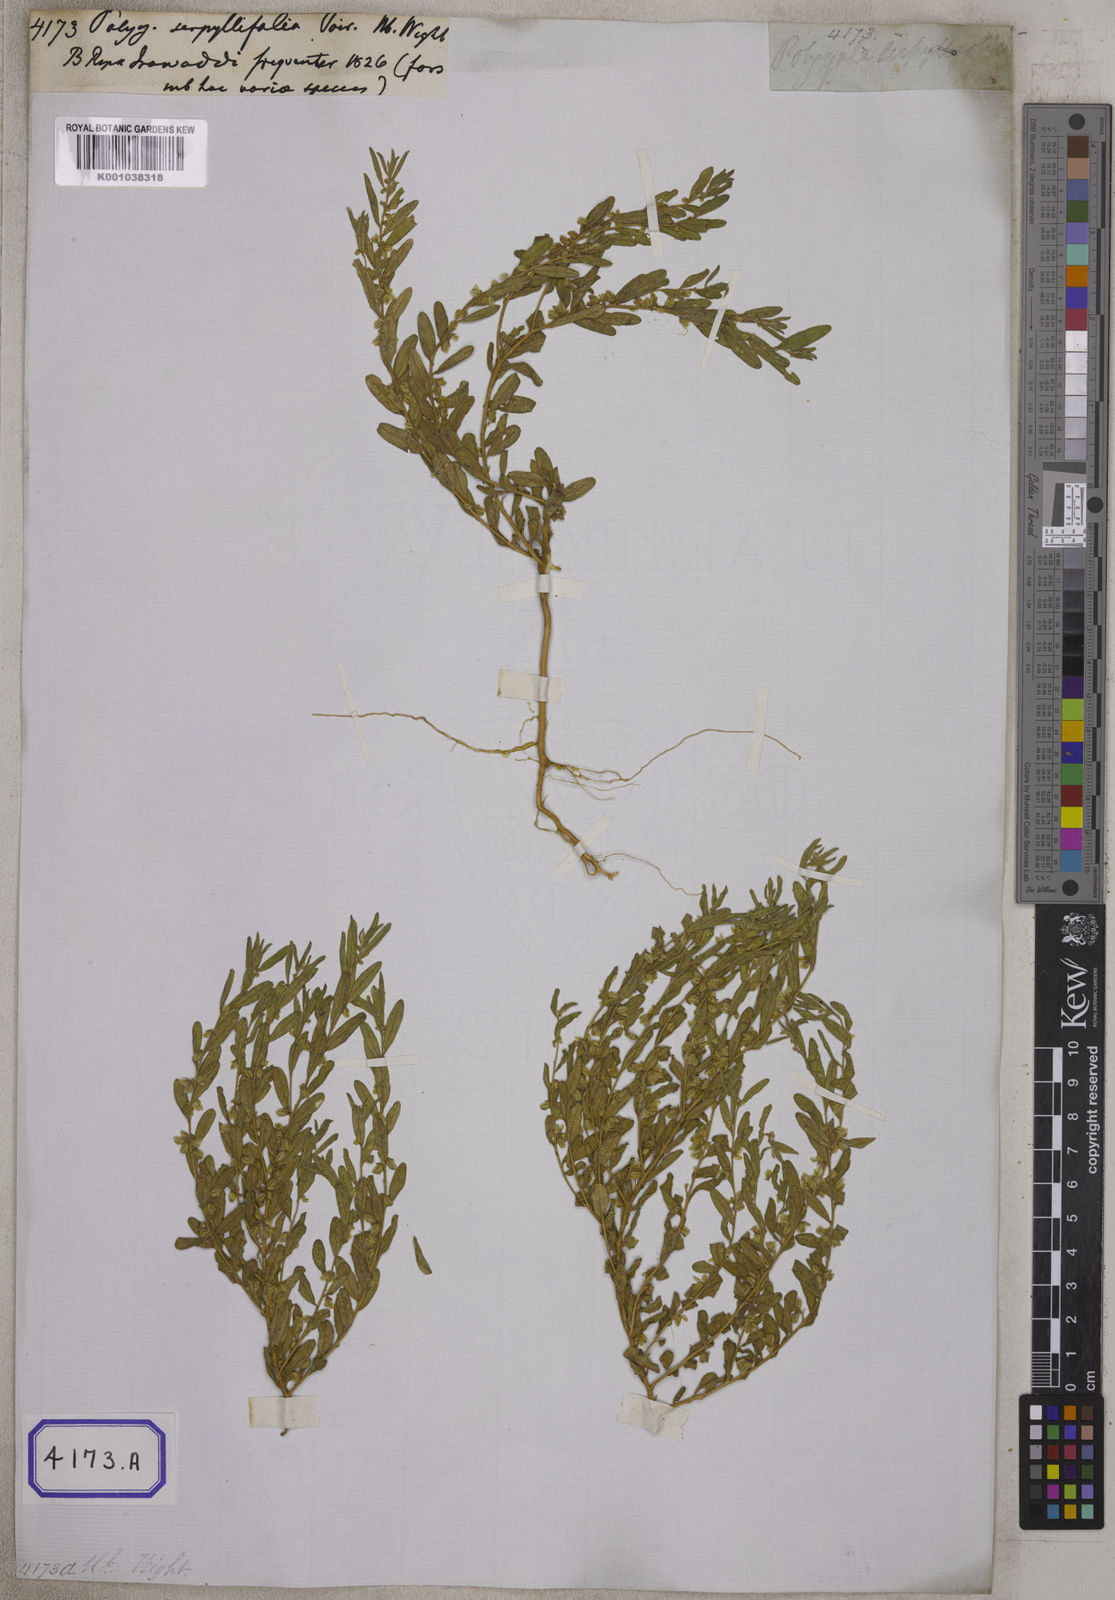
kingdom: Plantae
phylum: Tracheophyta
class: Magnoliopsida
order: Fabales
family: Polygalaceae
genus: Polygala
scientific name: Polygala
